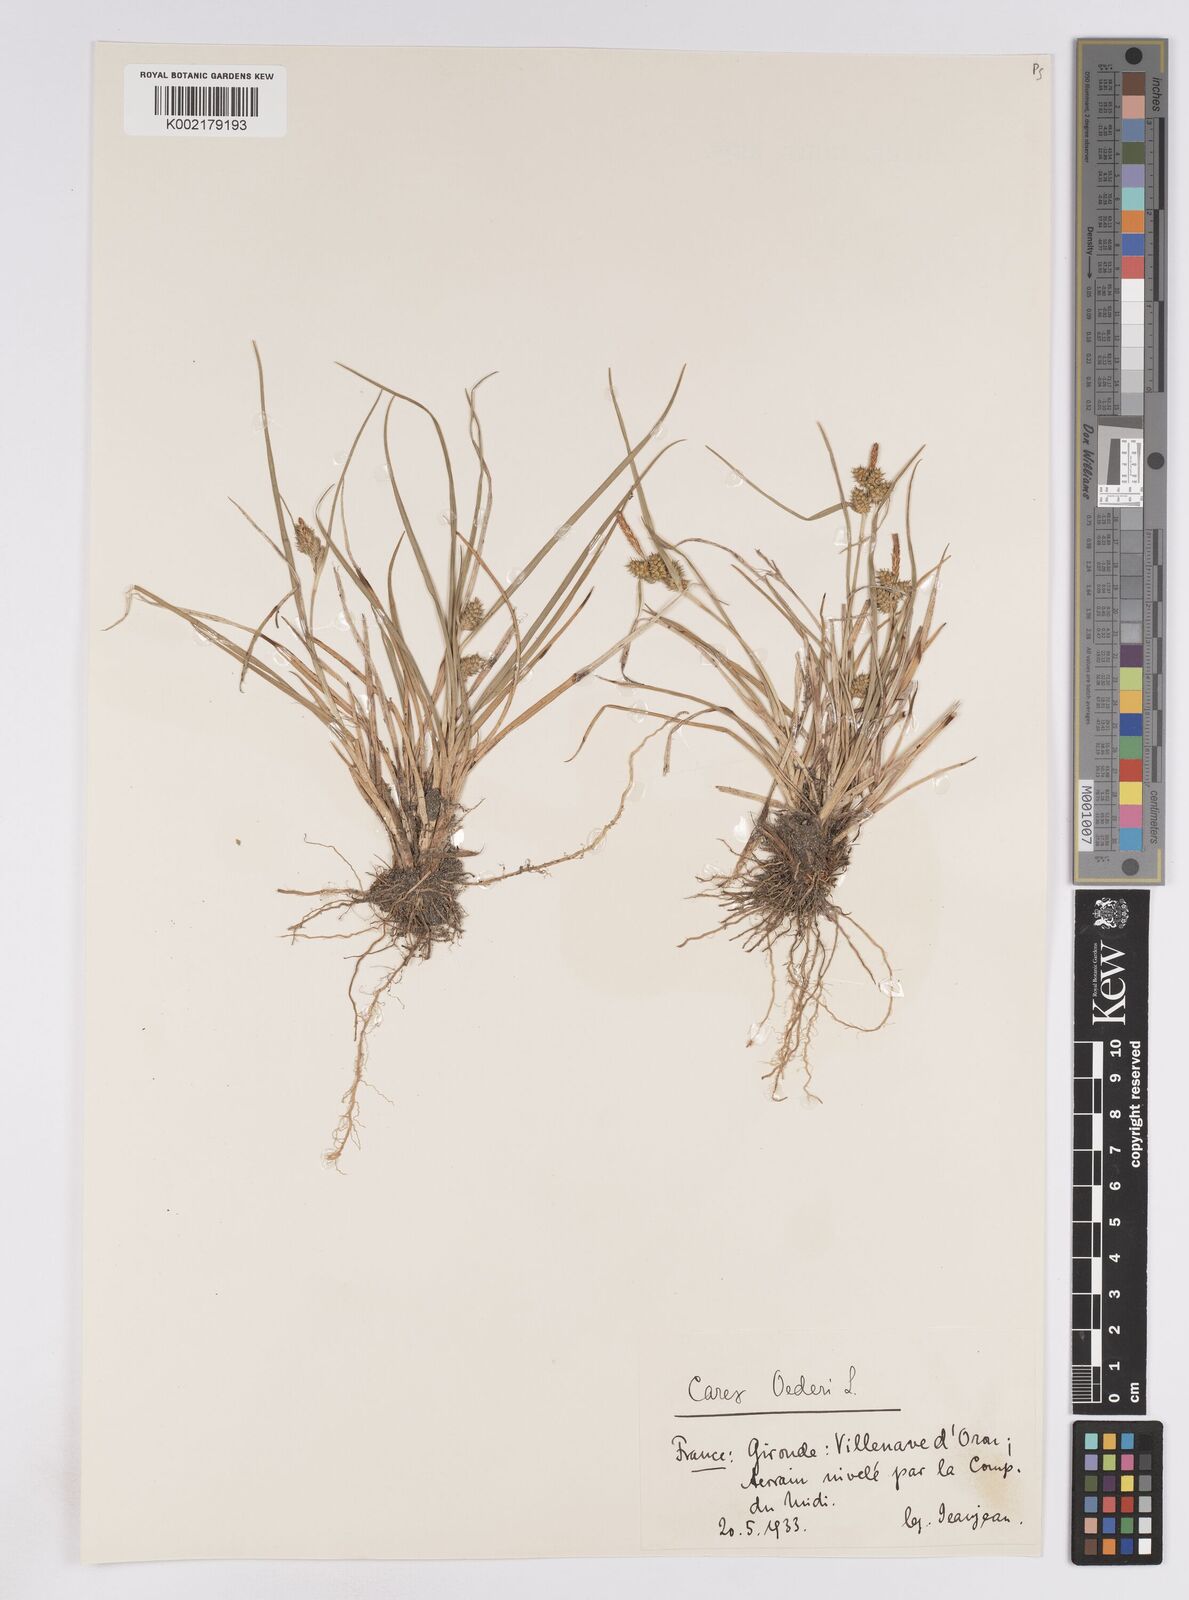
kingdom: Plantae
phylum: Tracheophyta
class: Liliopsida
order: Poales
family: Cyperaceae
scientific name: Cyperaceae
